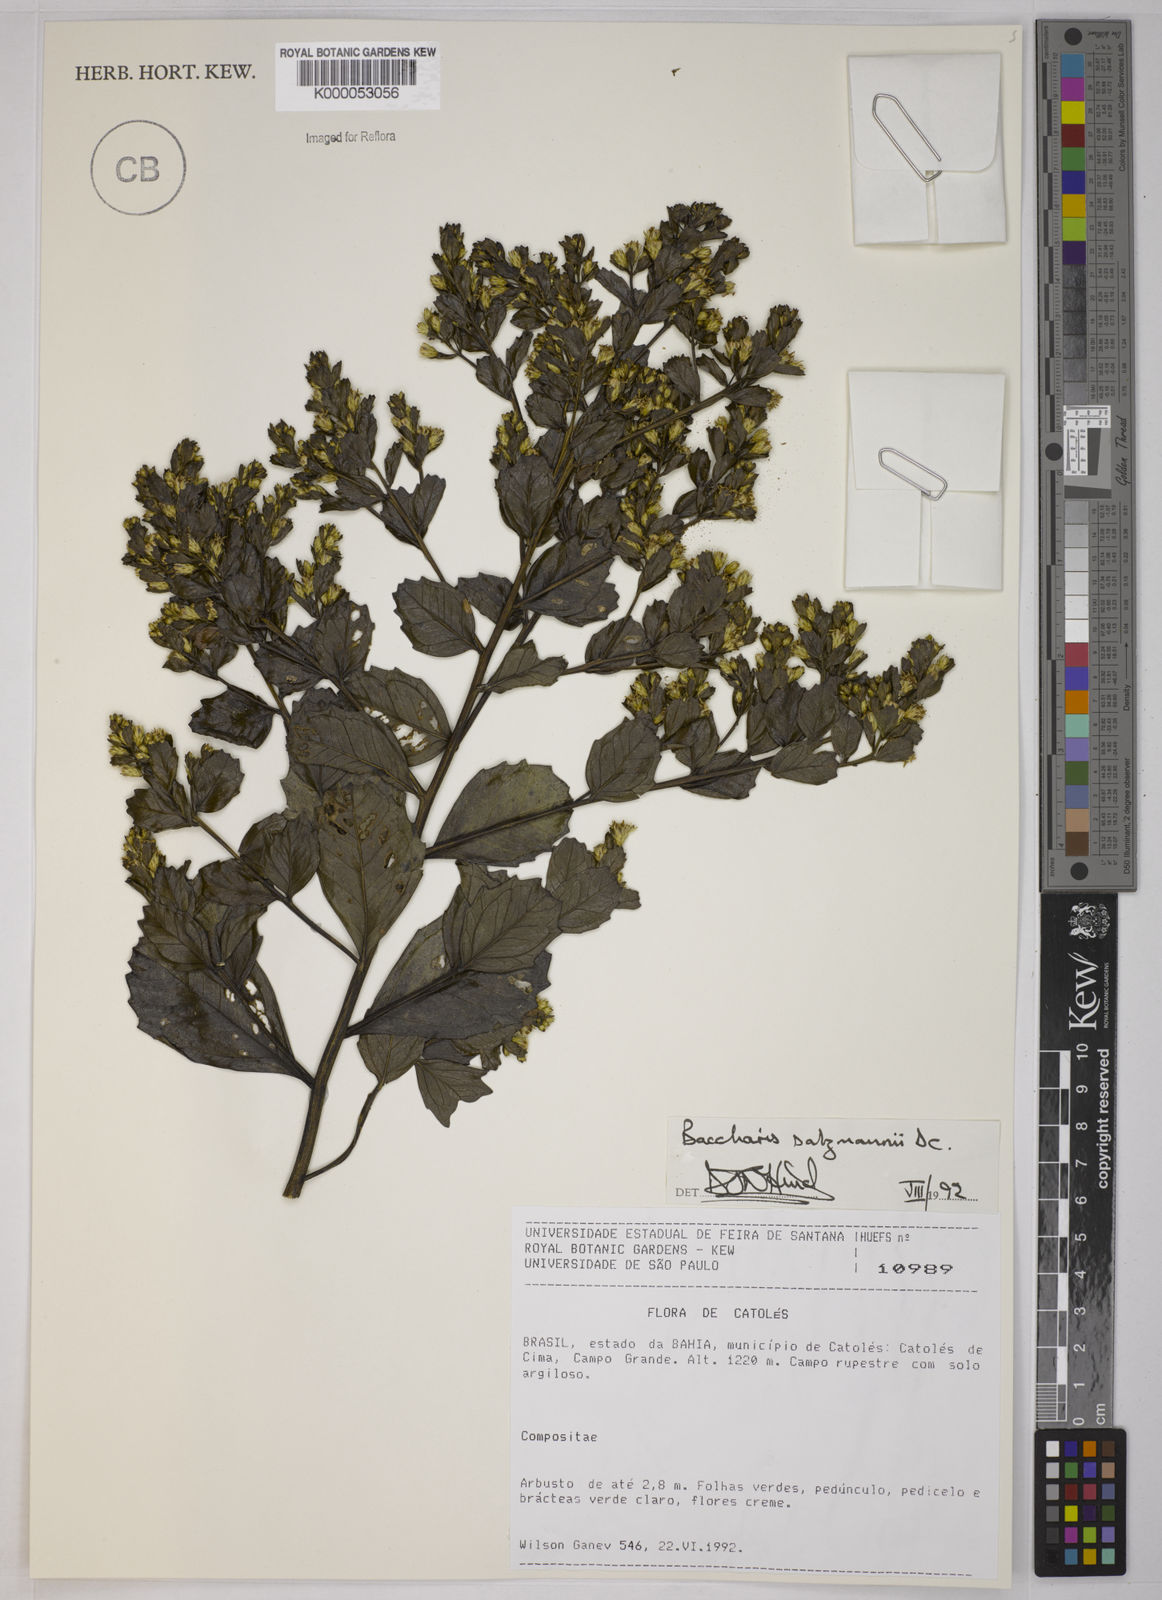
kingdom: Plantae
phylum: Tracheophyta
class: Magnoliopsida
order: Asterales
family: Asteraceae
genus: Baccharis
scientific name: Baccharis retusa
